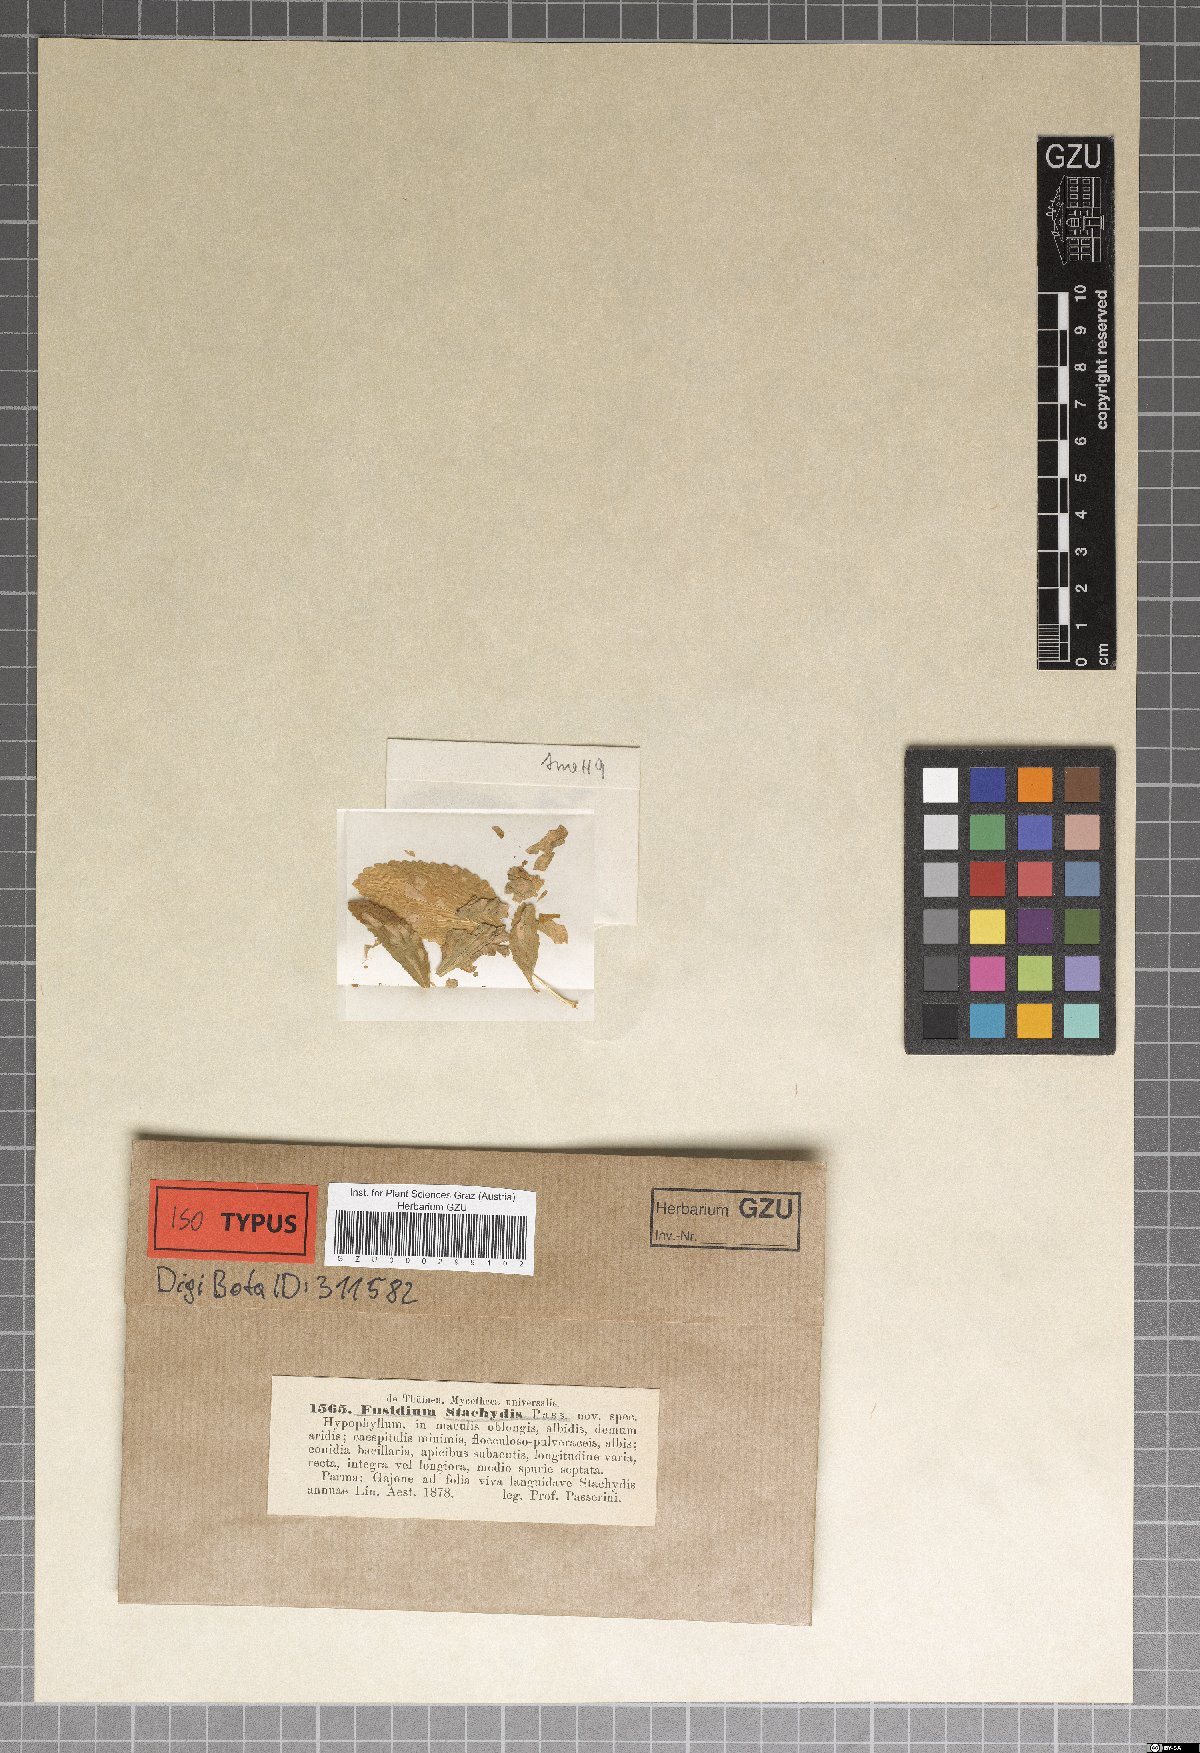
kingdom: Fungi
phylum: Ascomycota
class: Dothideomycetes
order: Mycosphaerellales
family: Mycosphaerellaceae
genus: Ramularia
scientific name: Ramularia stachydis
